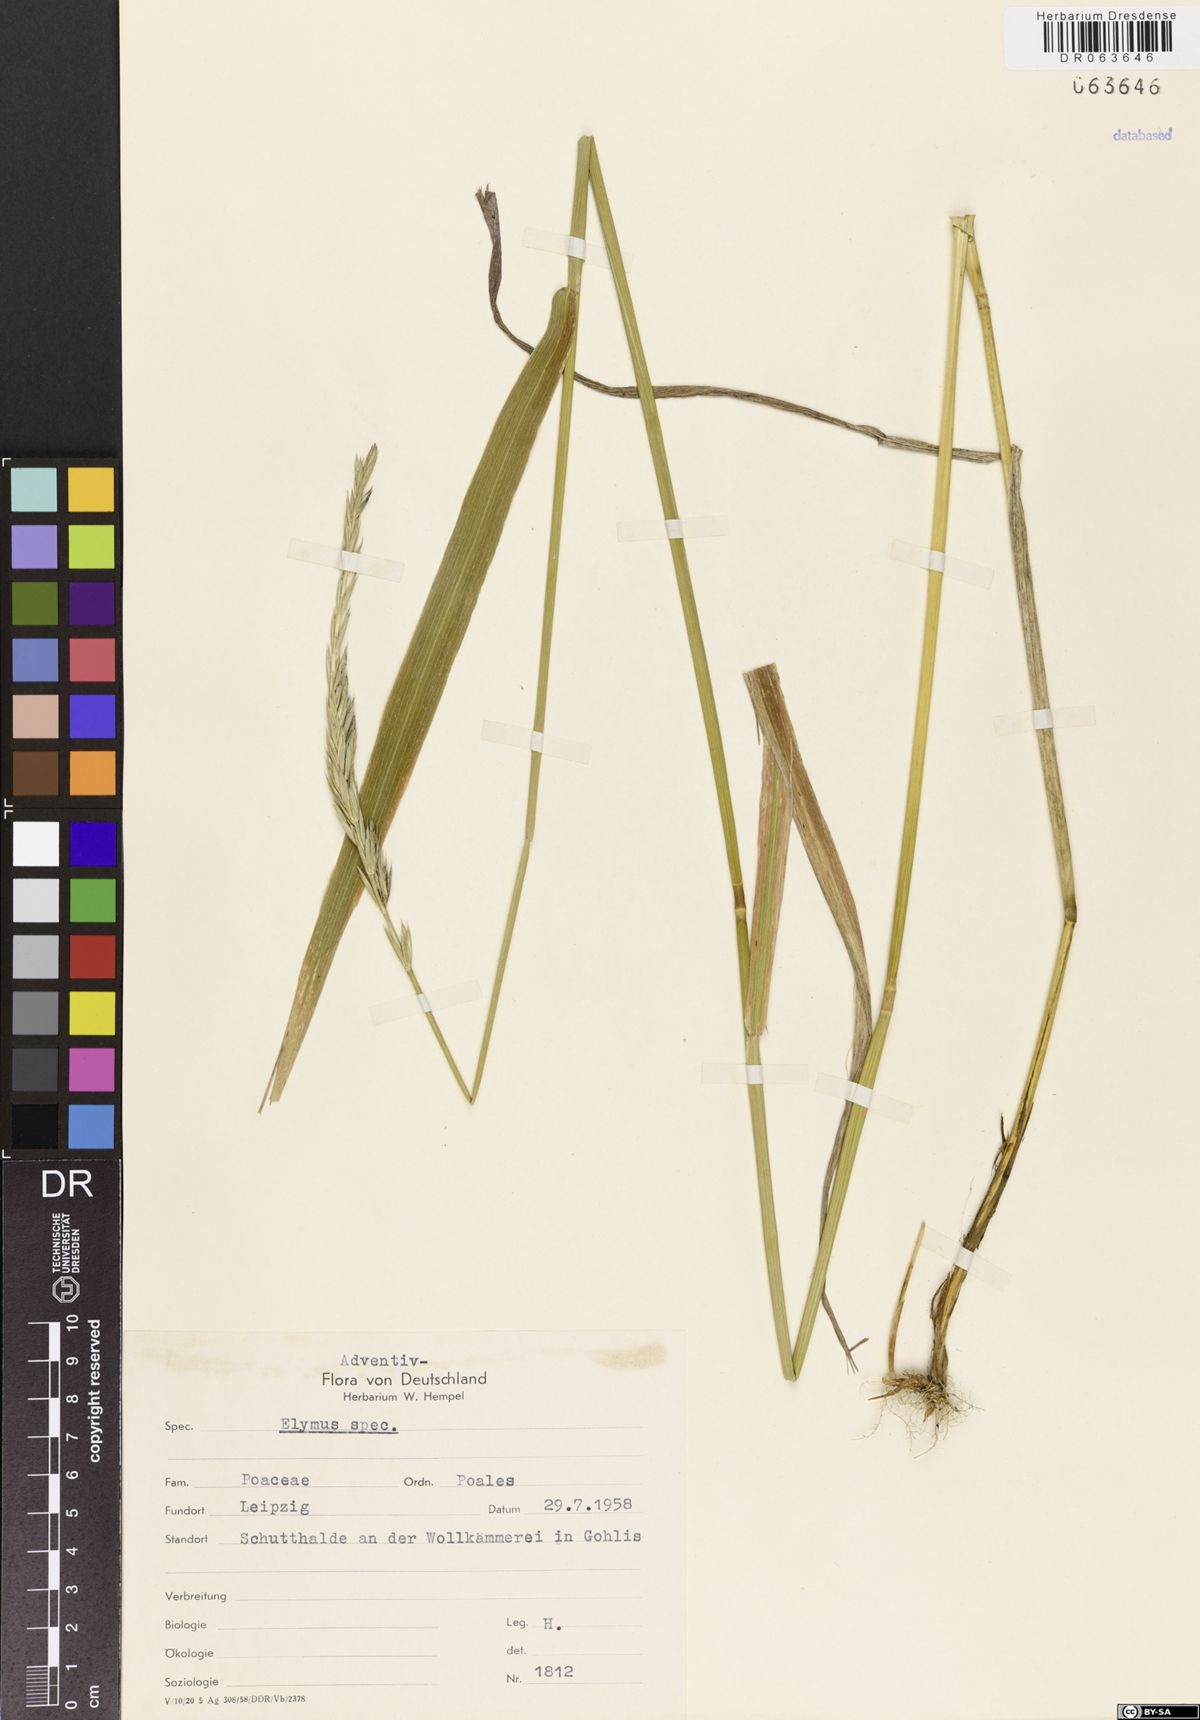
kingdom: Plantae
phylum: Tracheophyta
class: Liliopsida
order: Poales
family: Poaceae
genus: Elymus
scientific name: Elymus
